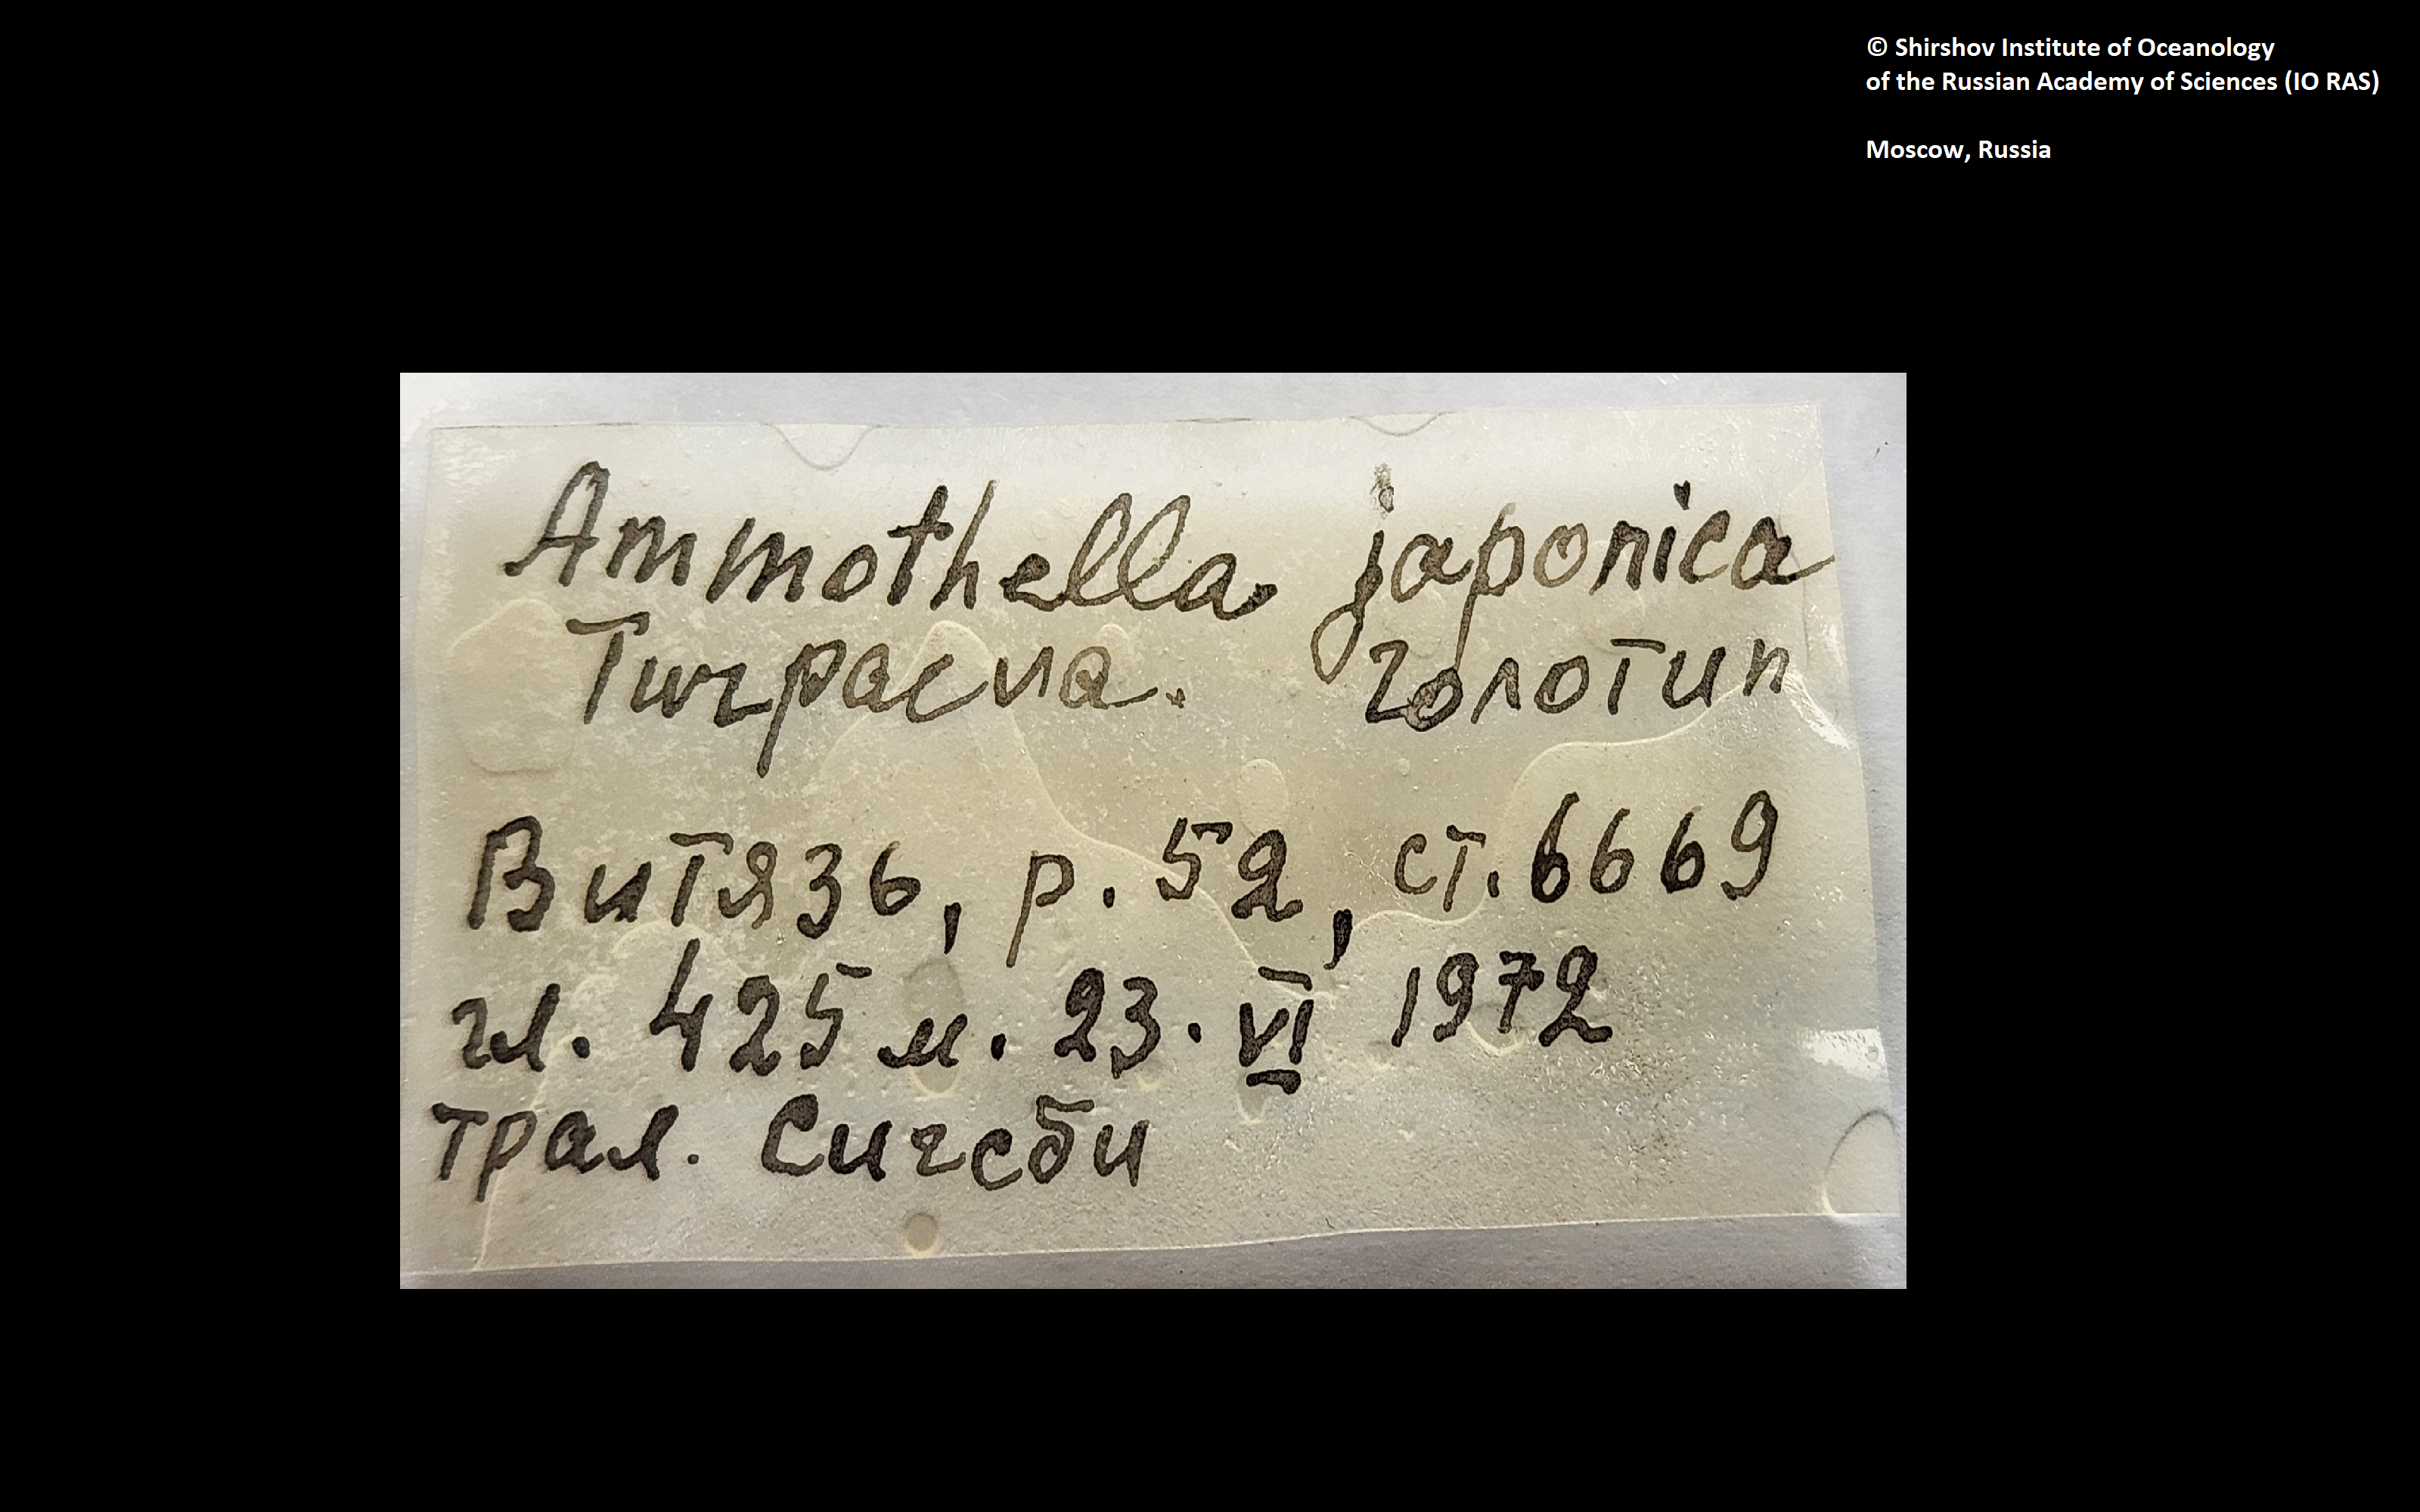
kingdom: Animalia
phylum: Arthropoda
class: Pycnogonida
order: Pantopoda
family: Ammotheidae
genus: Cilunculus
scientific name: Cilunculus japonicus
